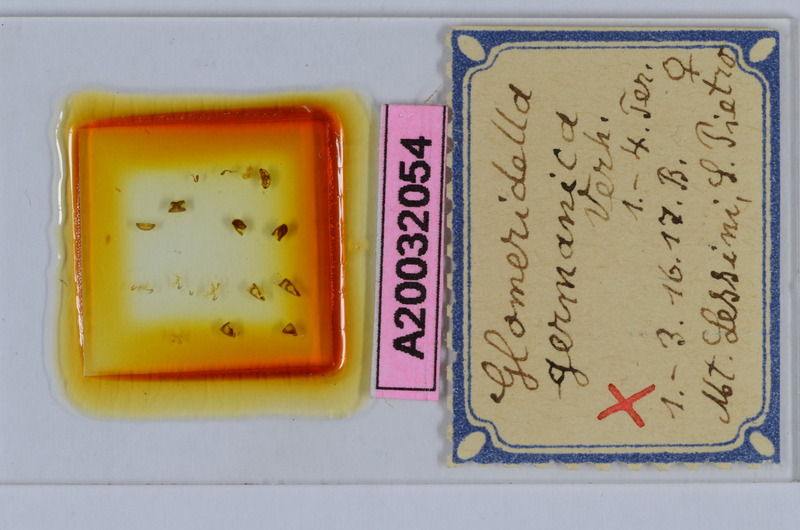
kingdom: Animalia
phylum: Arthropoda
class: Diplopoda
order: Glomerida
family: Glomeridellidae
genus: Glomeridella
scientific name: Glomeridella minima
